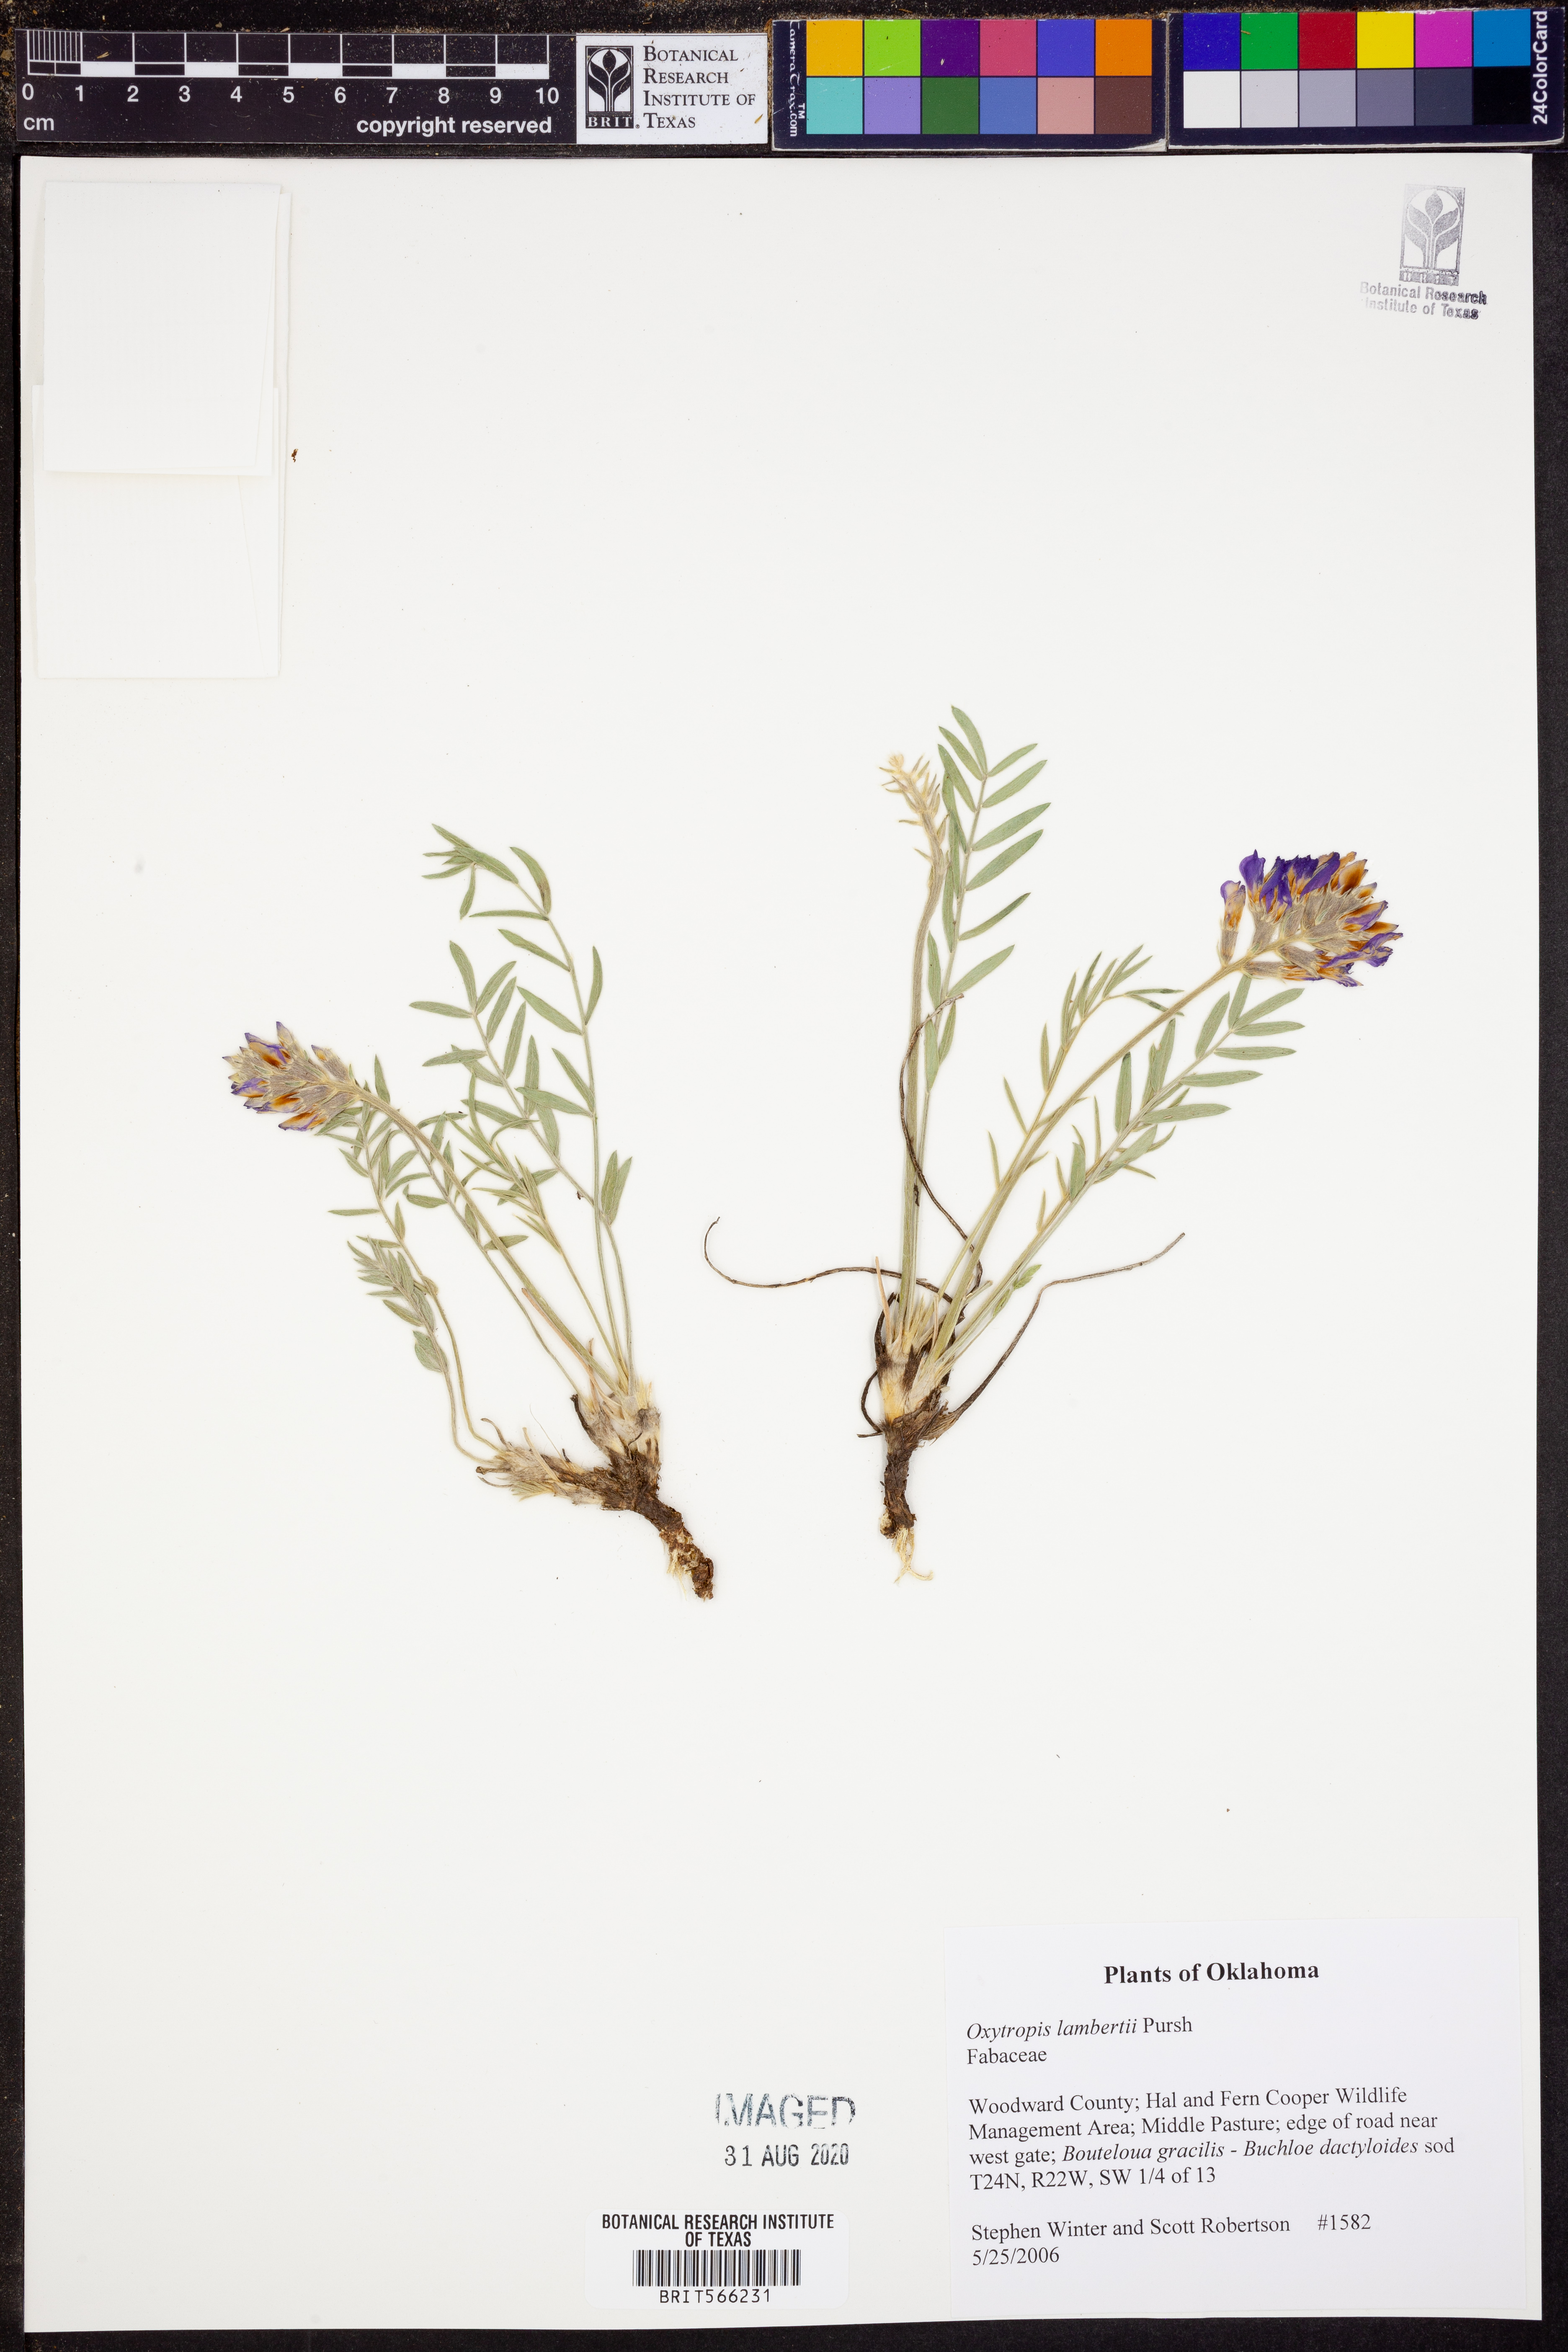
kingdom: Plantae
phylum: Tracheophyta
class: Magnoliopsida
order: Fabales
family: Fabaceae
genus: Oxytropis
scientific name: Oxytropis lambertii
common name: Purple locoweed
